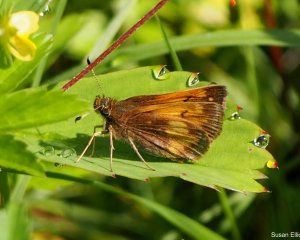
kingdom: Animalia
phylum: Arthropoda
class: Insecta
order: Lepidoptera
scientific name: Lepidoptera
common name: Butterflies
